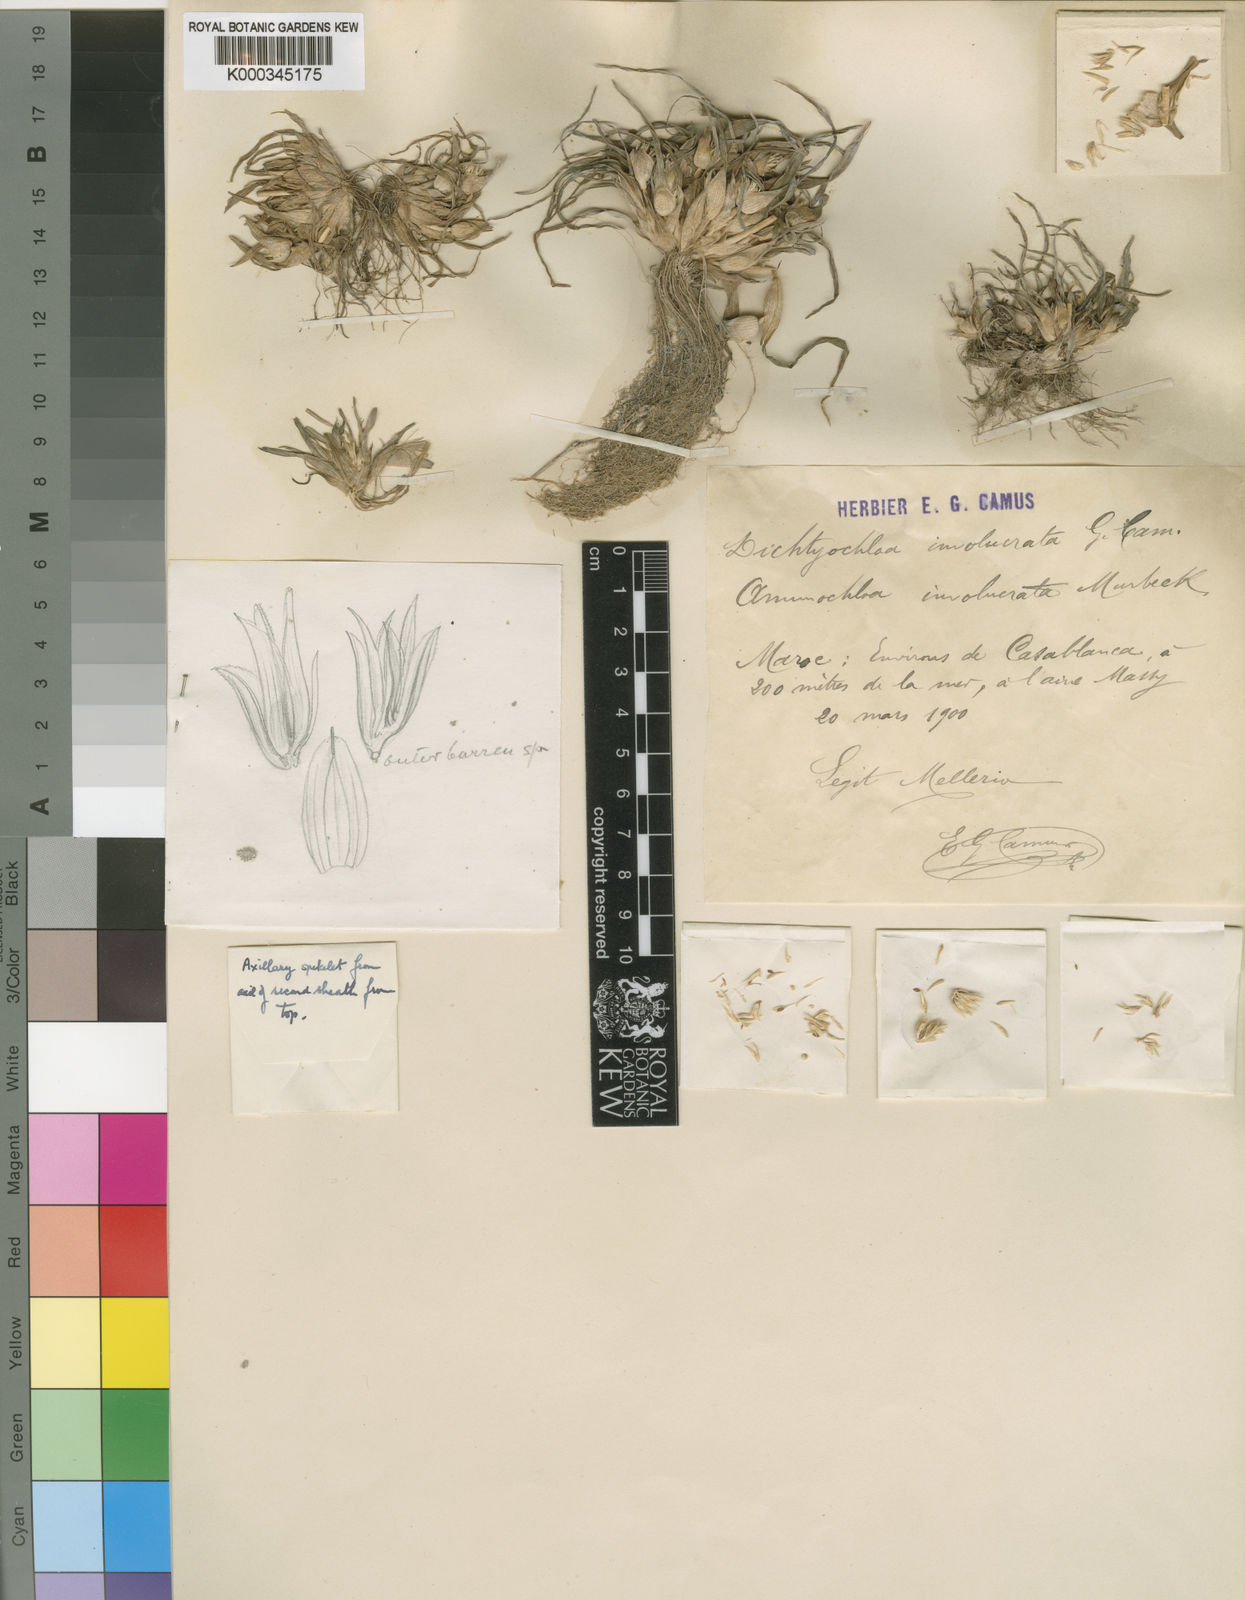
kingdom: Plantae
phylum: Tracheophyta
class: Liliopsida
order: Poales
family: Poaceae
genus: Ammochloa
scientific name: Ammochloa involucrata
